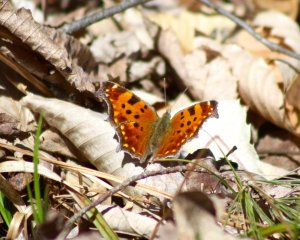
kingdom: Animalia
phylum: Arthropoda
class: Insecta
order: Lepidoptera
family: Nymphalidae
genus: Polygonia
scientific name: Polygonia comma
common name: Eastern Comma
